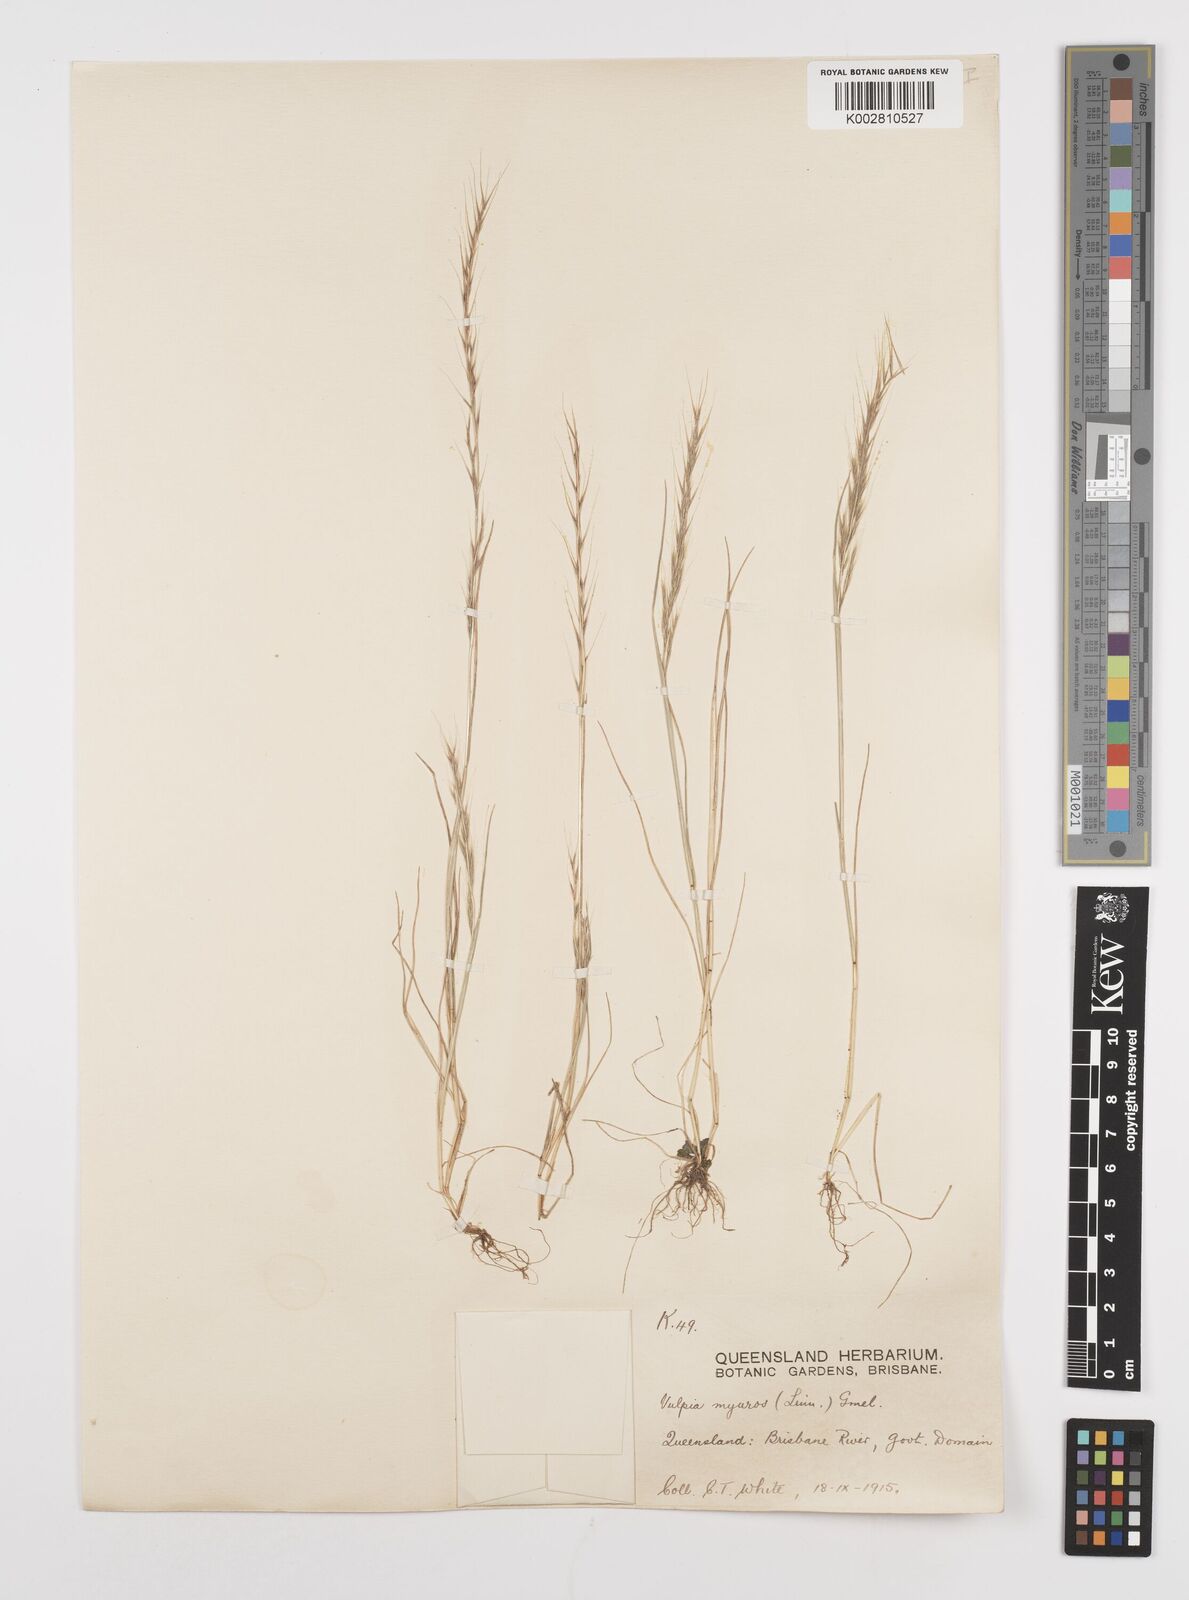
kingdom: Plantae
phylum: Tracheophyta
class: Liliopsida
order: Poales
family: Poaceae
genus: Festuca
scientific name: Festuca myuros
